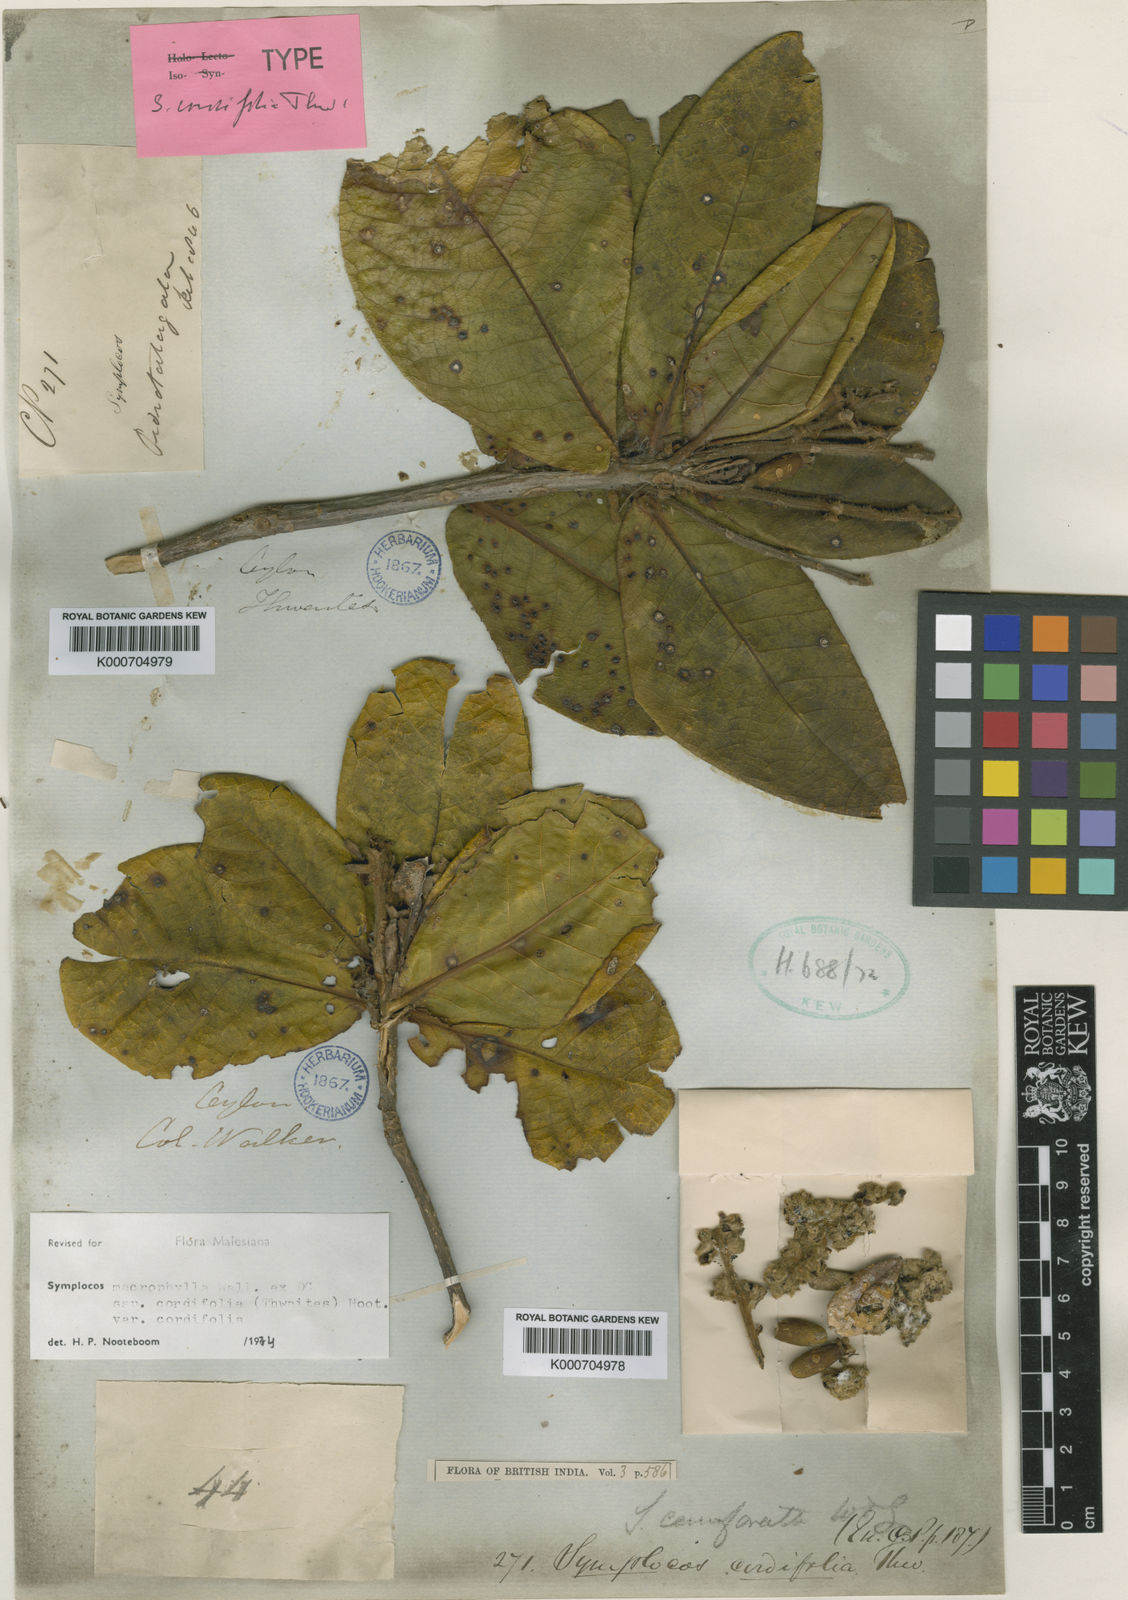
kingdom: Plantae
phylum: Tracheophyta
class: Magnoliopsida
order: Ericales
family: Symplocaceae
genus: Symplocos
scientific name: Symplocos
